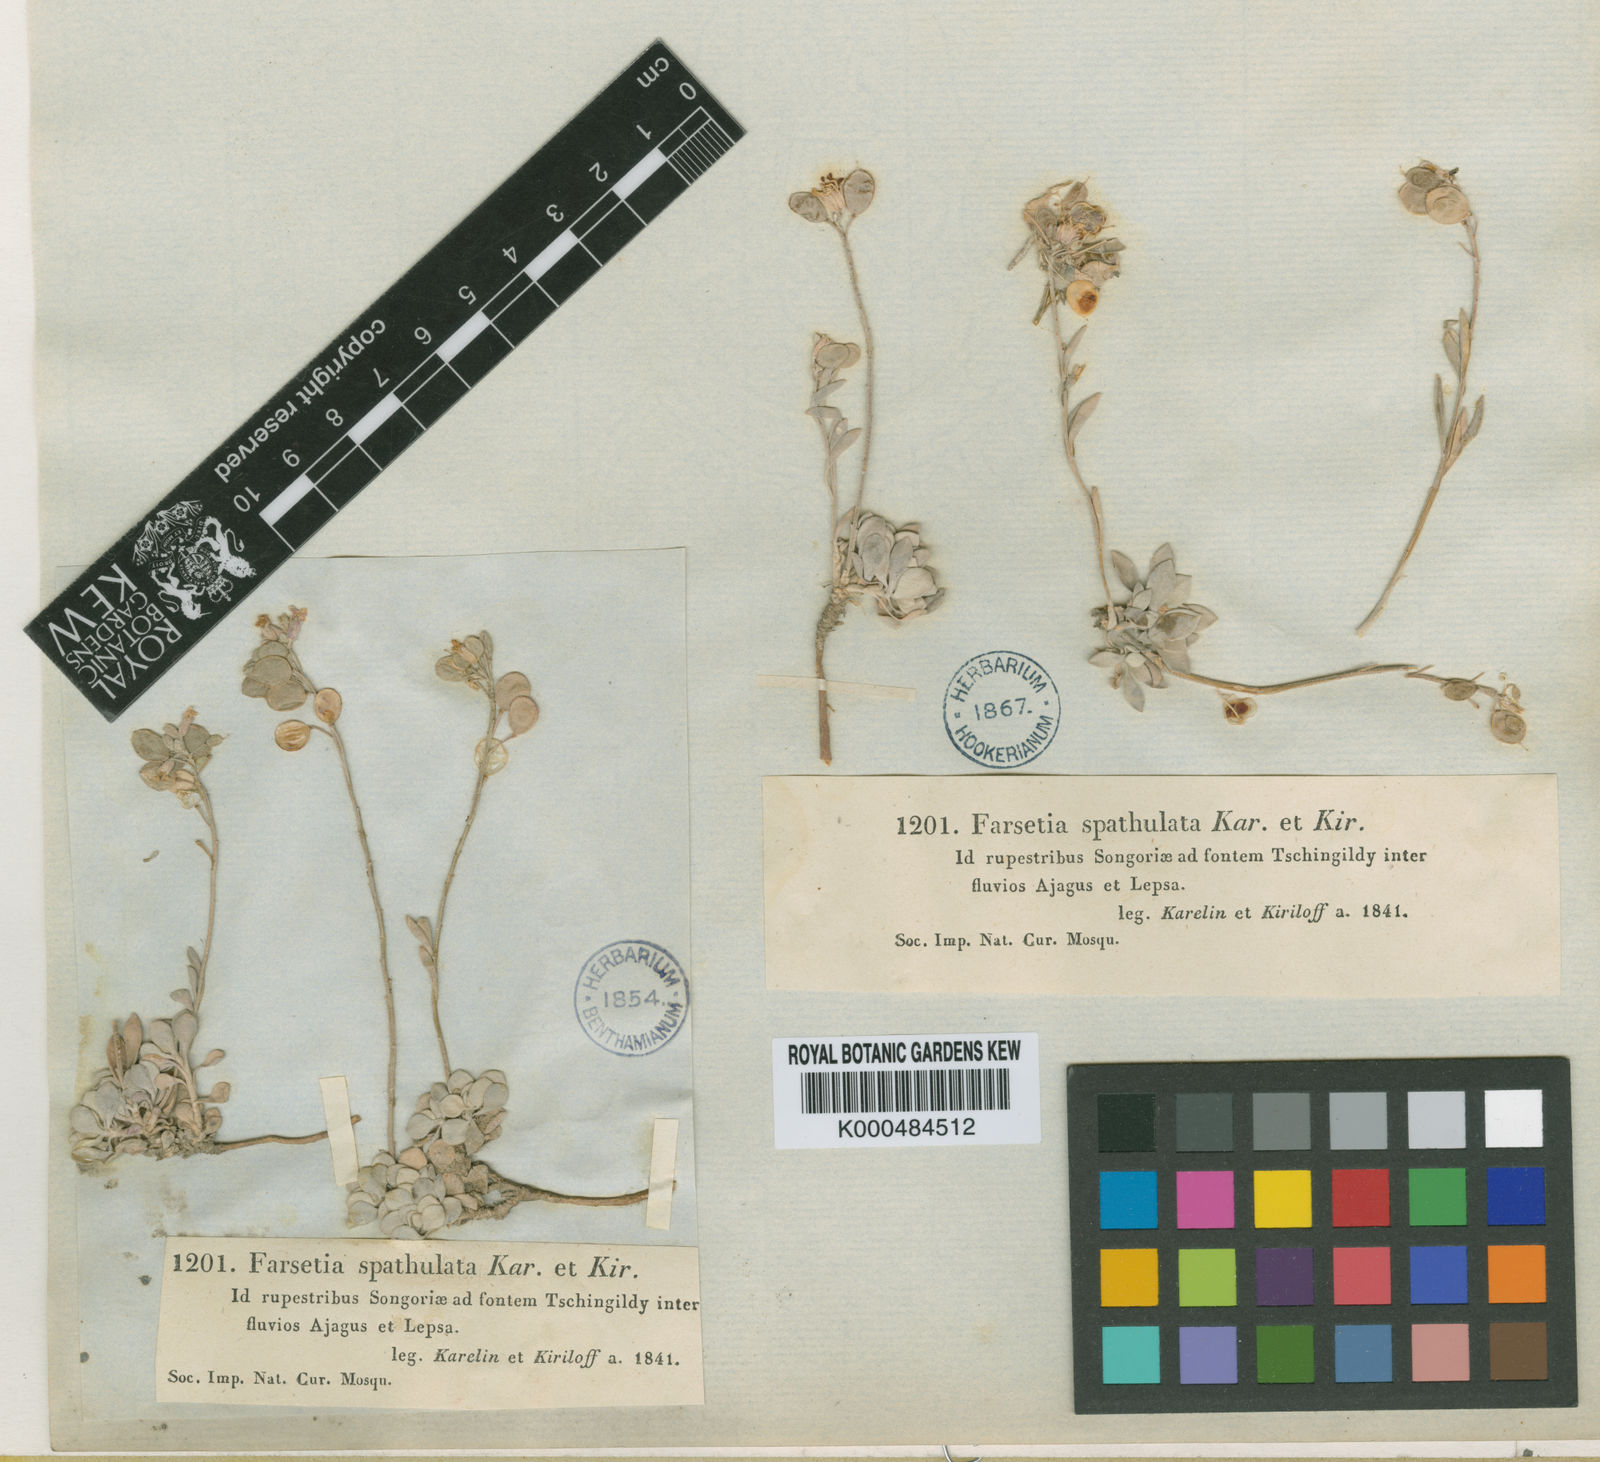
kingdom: Plantae
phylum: Tracheophyta
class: Magnoliopsida
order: Brassicales
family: Brassicaceae
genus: Pterygostemon
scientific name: Pterygostemon
